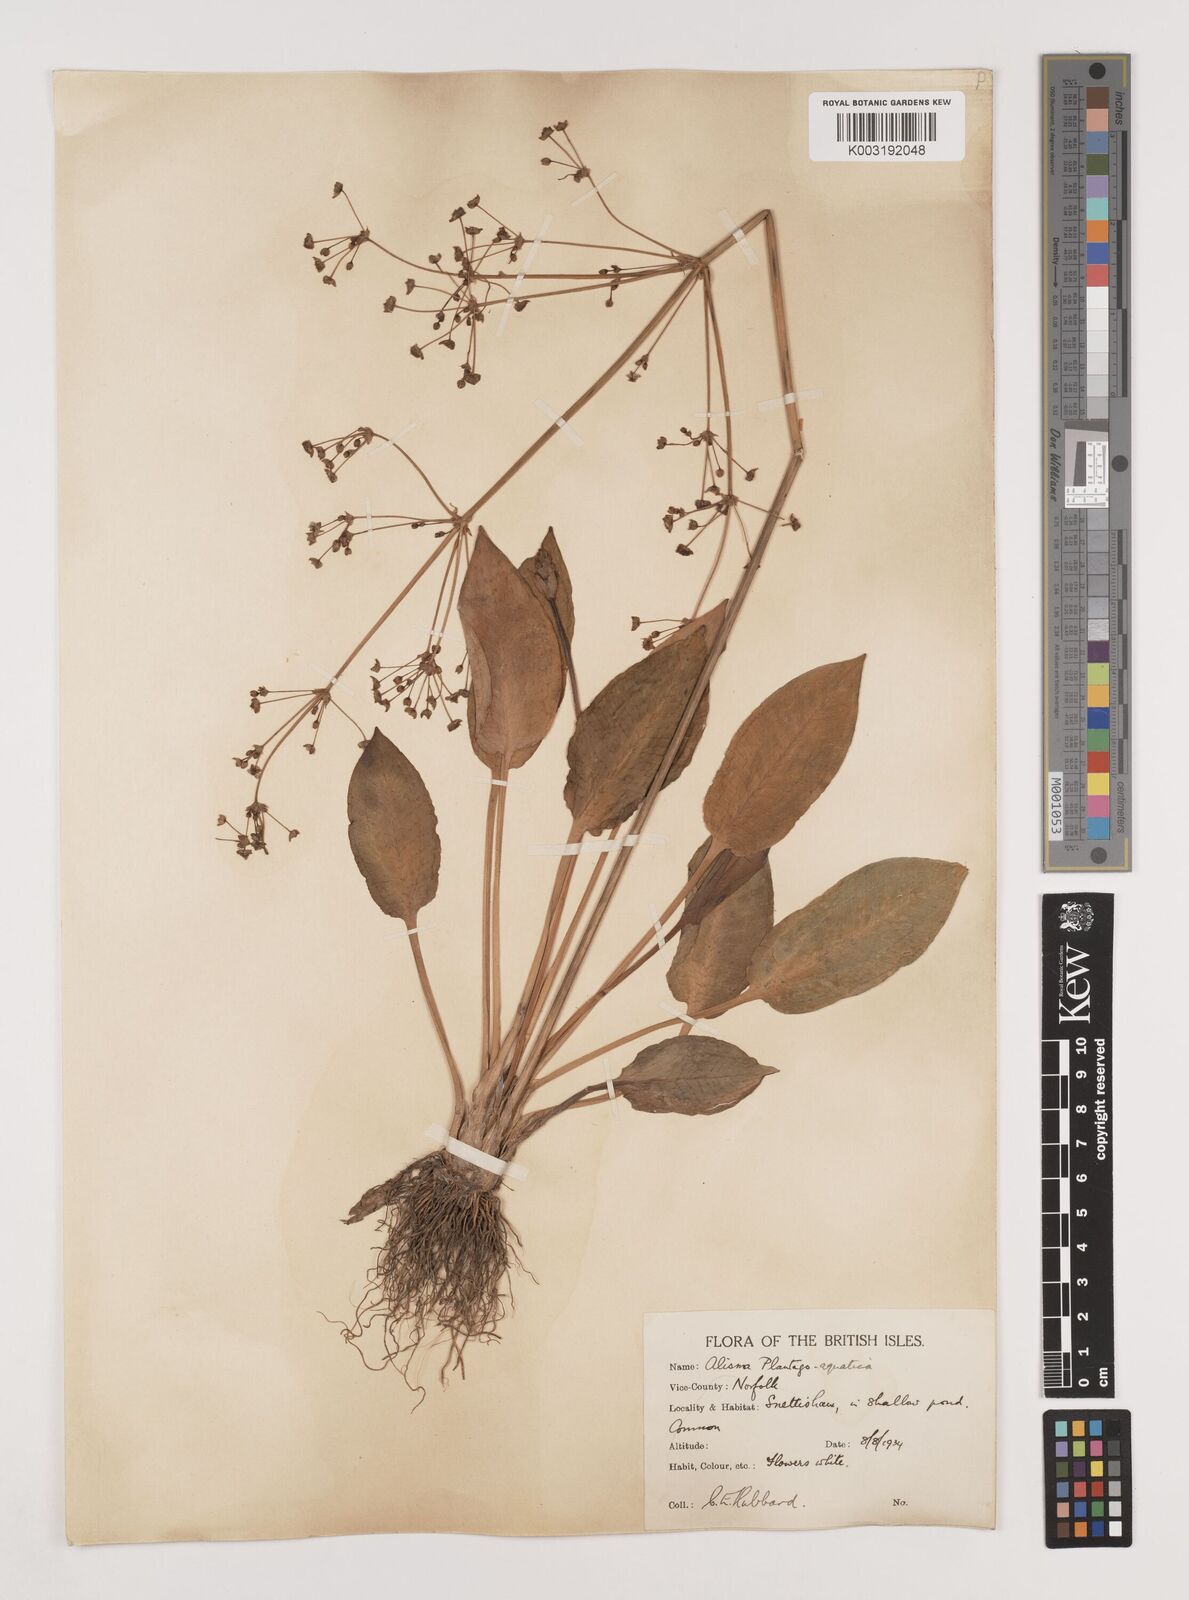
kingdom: Plantae
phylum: Tracheophyta
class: Liliopsida
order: Alismatales
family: Alismataceae
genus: Alisma
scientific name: Alisma plantago-aquatica
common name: Water-plantain
